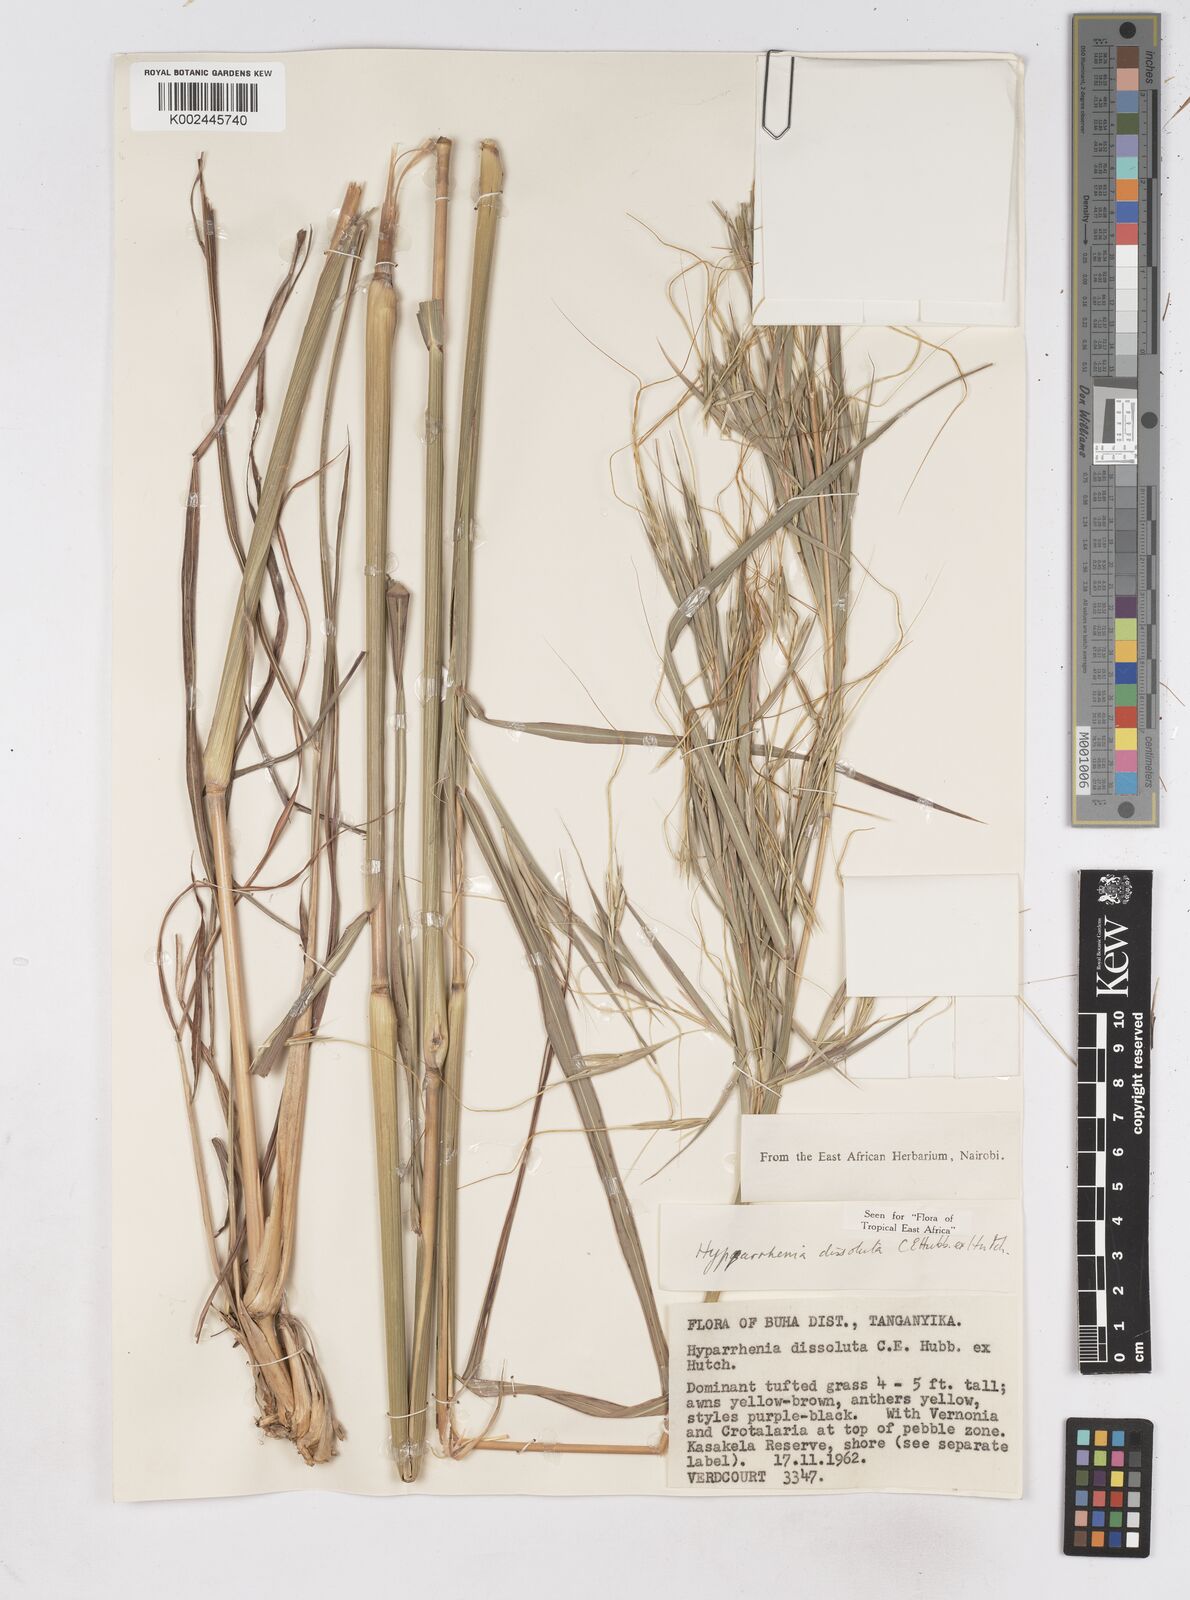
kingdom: Plantae
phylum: Tracheophyta
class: Liliopsida
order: Poales
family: Poaceae
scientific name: Poaceae
